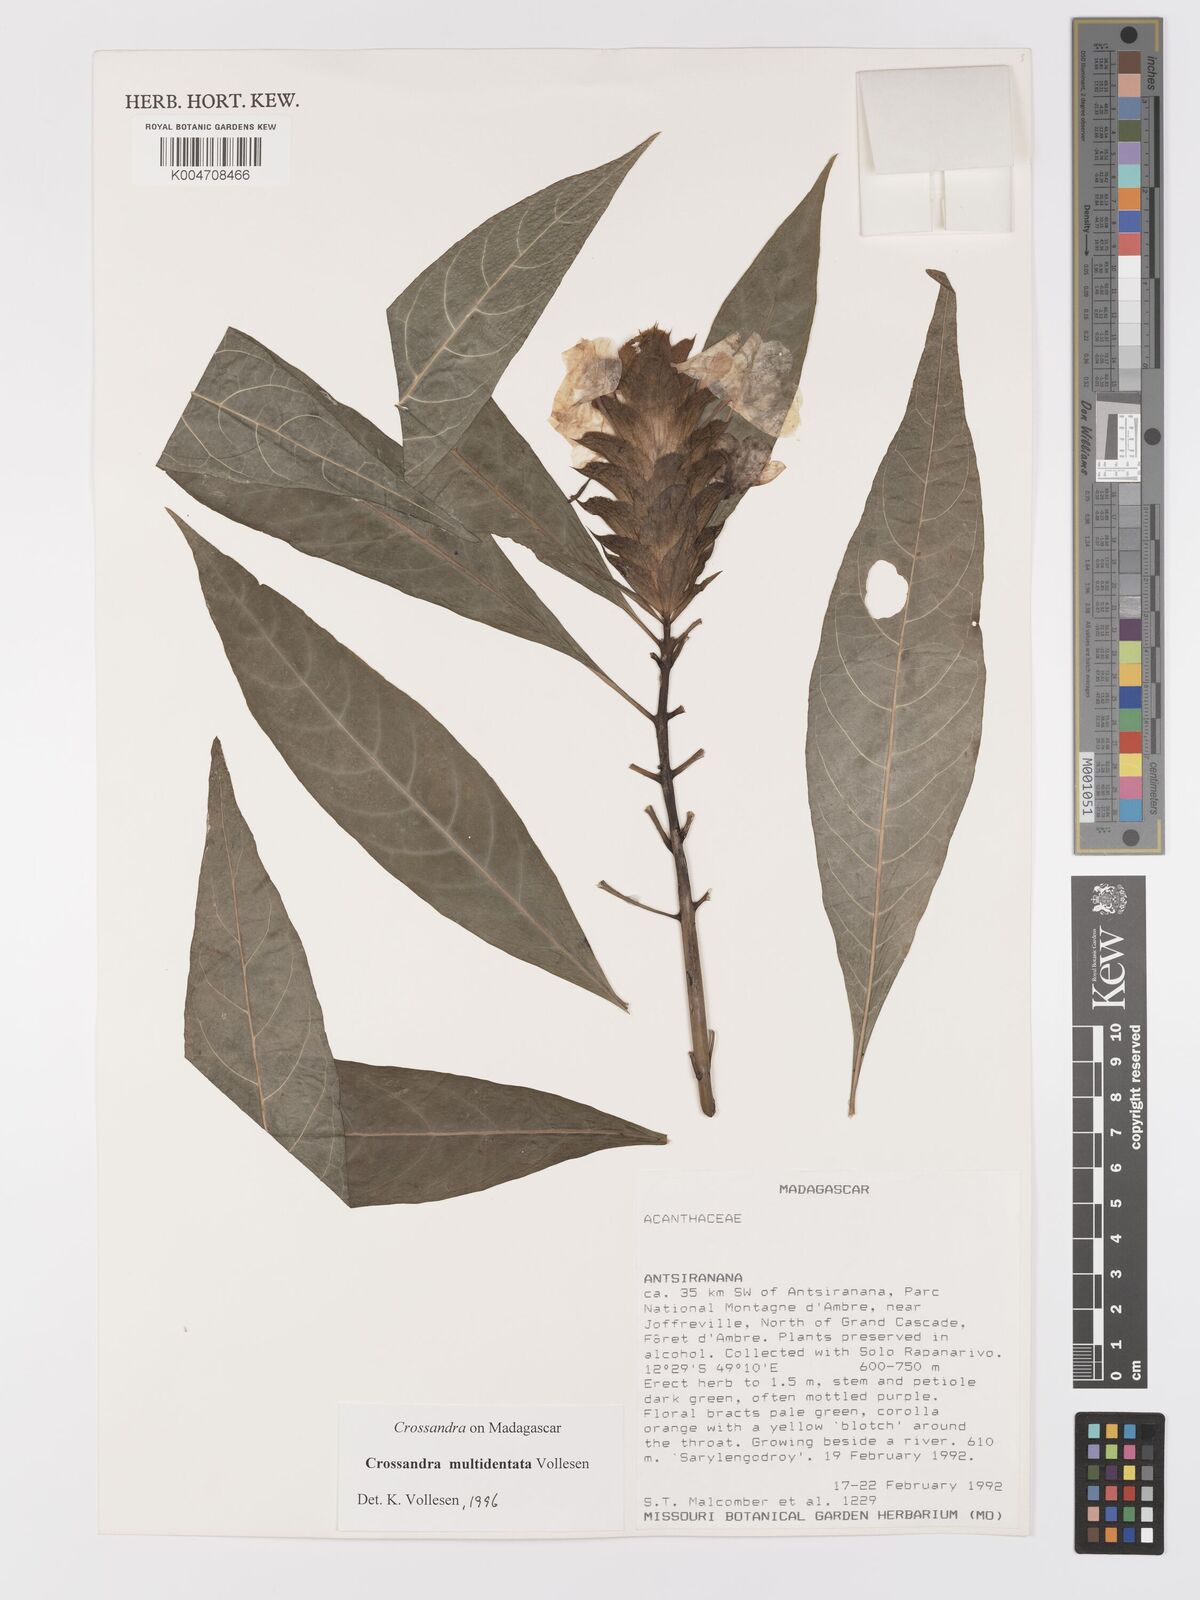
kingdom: Plantae
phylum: Tracheophyta
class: Magnoliopsida
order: Lamiales
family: Acanthaceae
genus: Crossandra
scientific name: Crossandra multidentata
